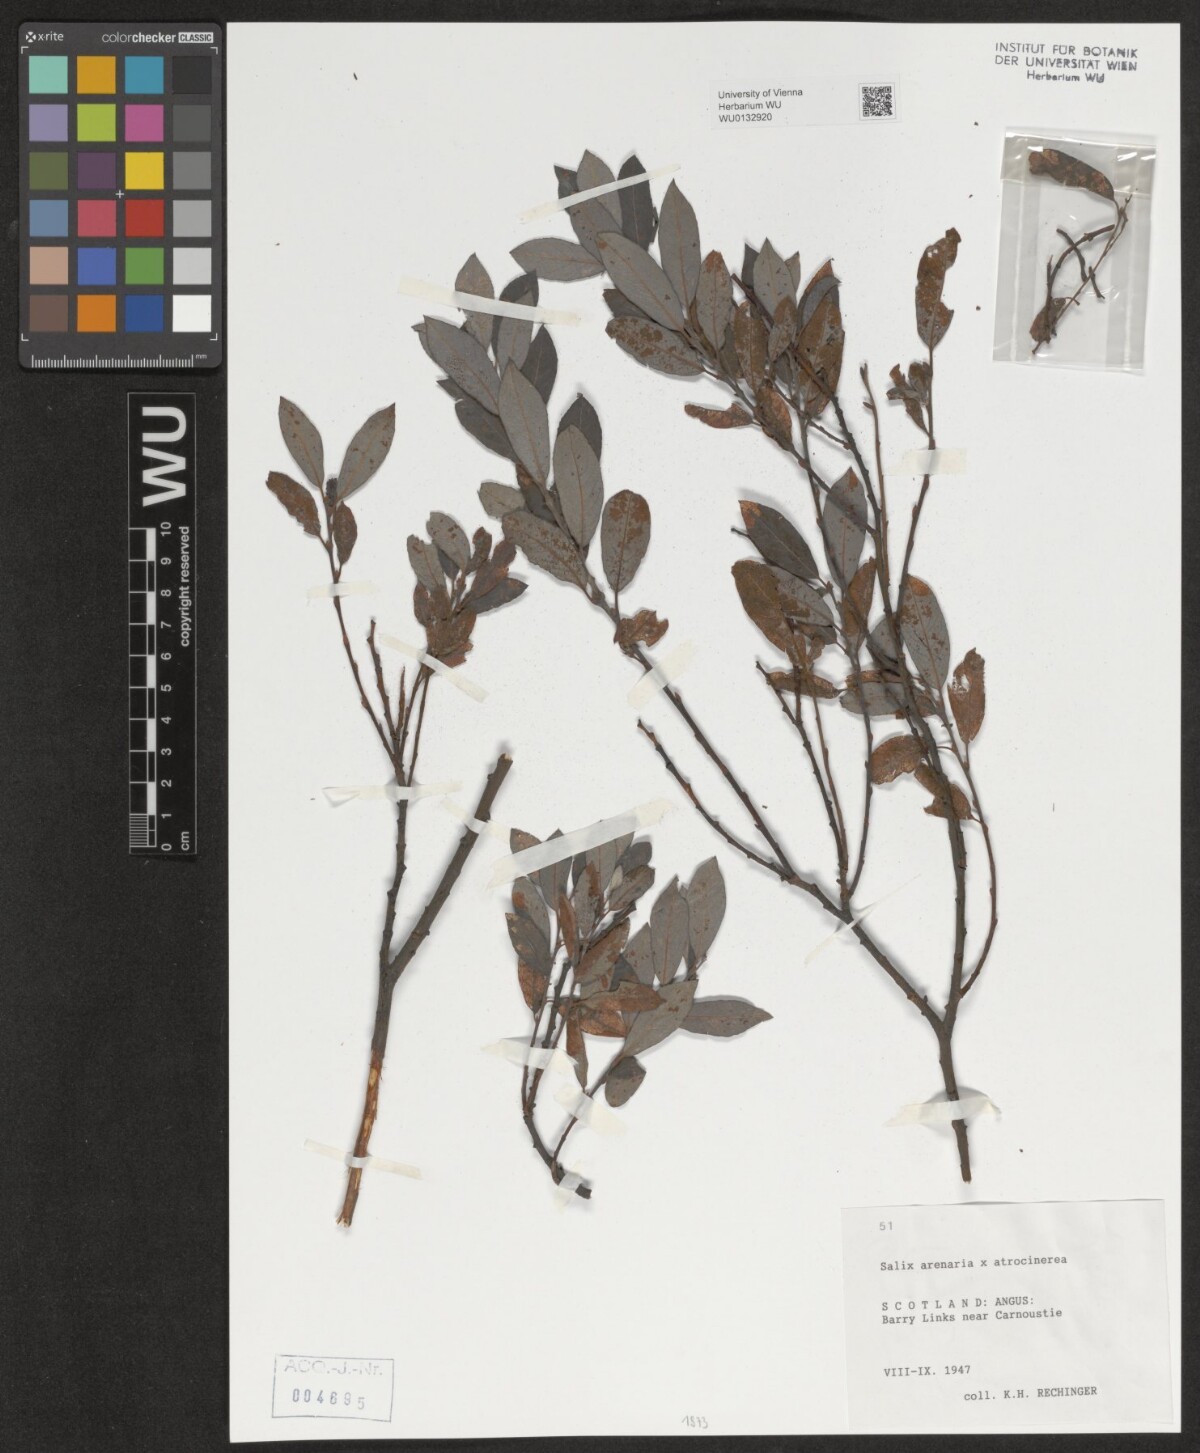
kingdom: Plantae
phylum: Tracheophyta
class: Magnoliopsida
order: Malpighiales
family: Salicaceae
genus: Salix
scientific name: Salix repens
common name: Creeping willow
